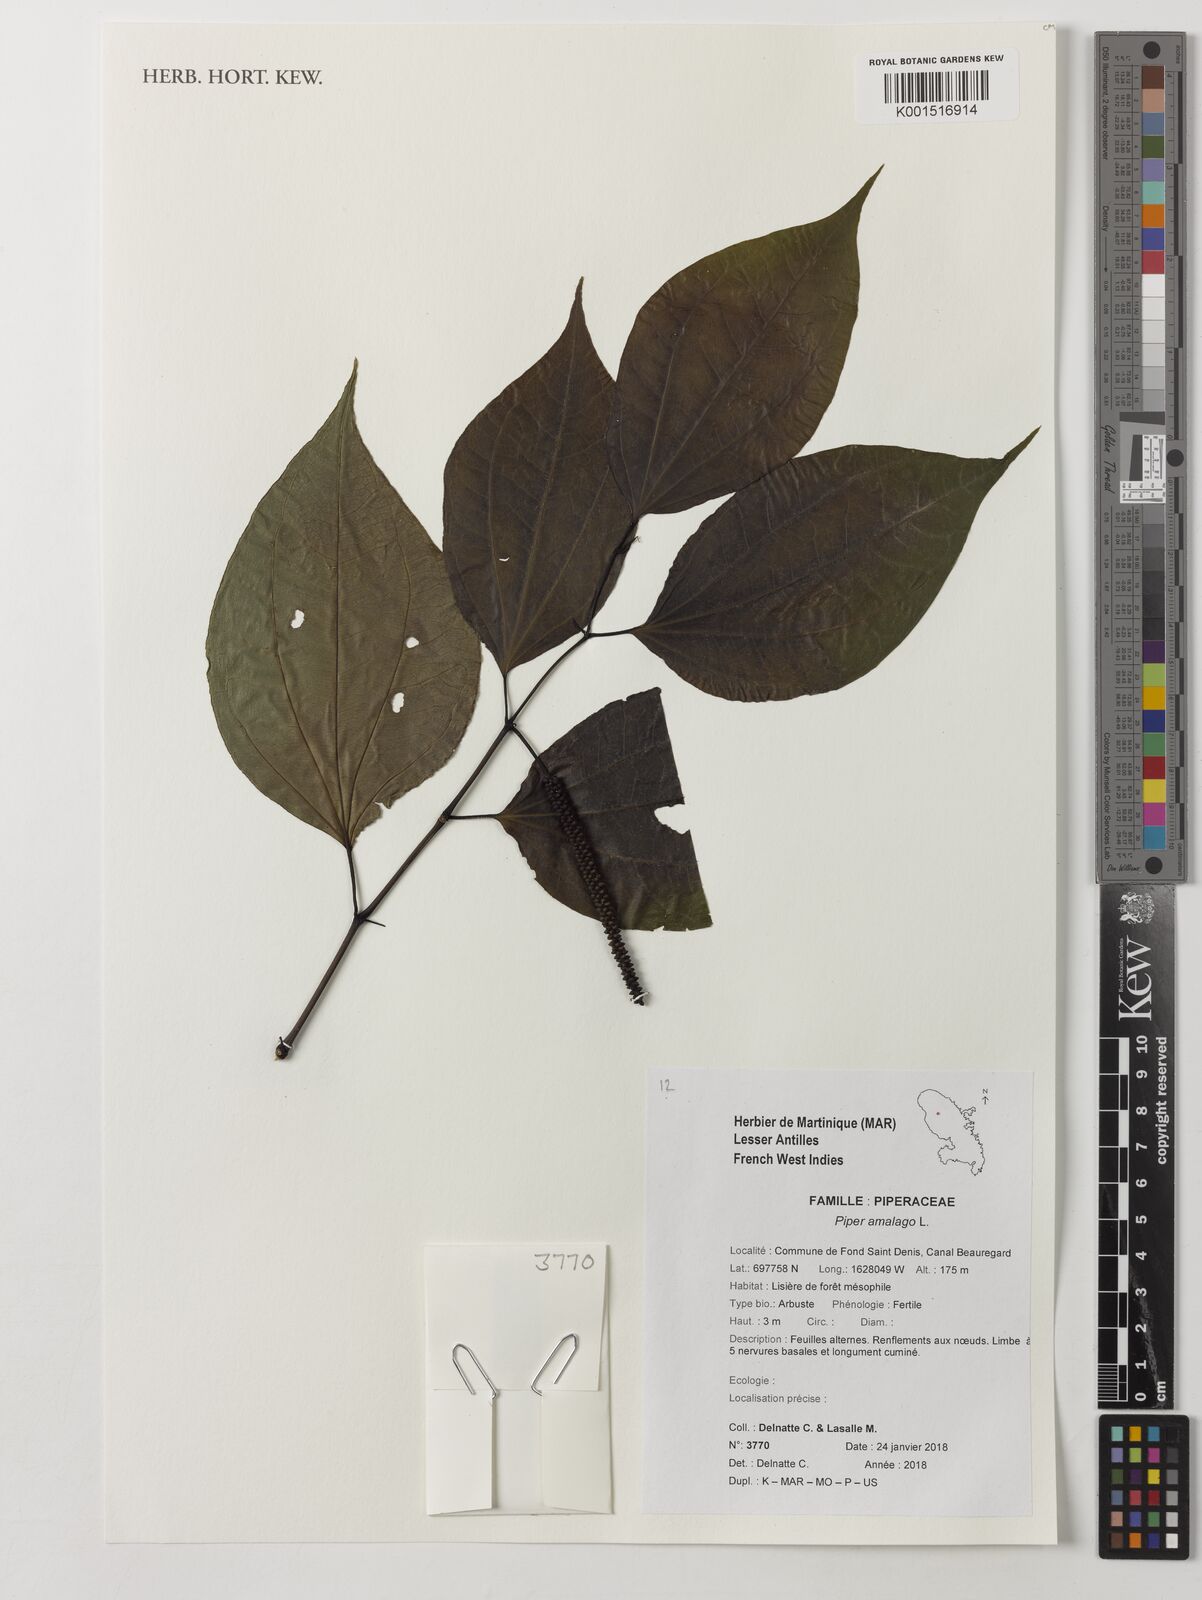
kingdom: Plantae
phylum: Tracheophyta
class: Magnoliopsida
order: Piperales
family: Piperaceae
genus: Piper
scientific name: Piper amalago
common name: Pepper-elder
